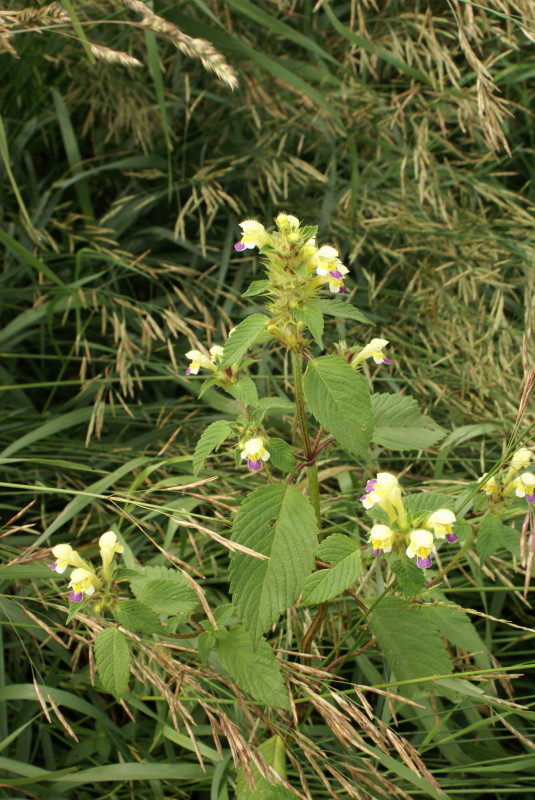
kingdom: Plantae
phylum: Tracheophyta
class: Magnoliopsida
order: Lamiales
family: Lamiaceae
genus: Galeopsis
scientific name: Galeopsis speciosa
